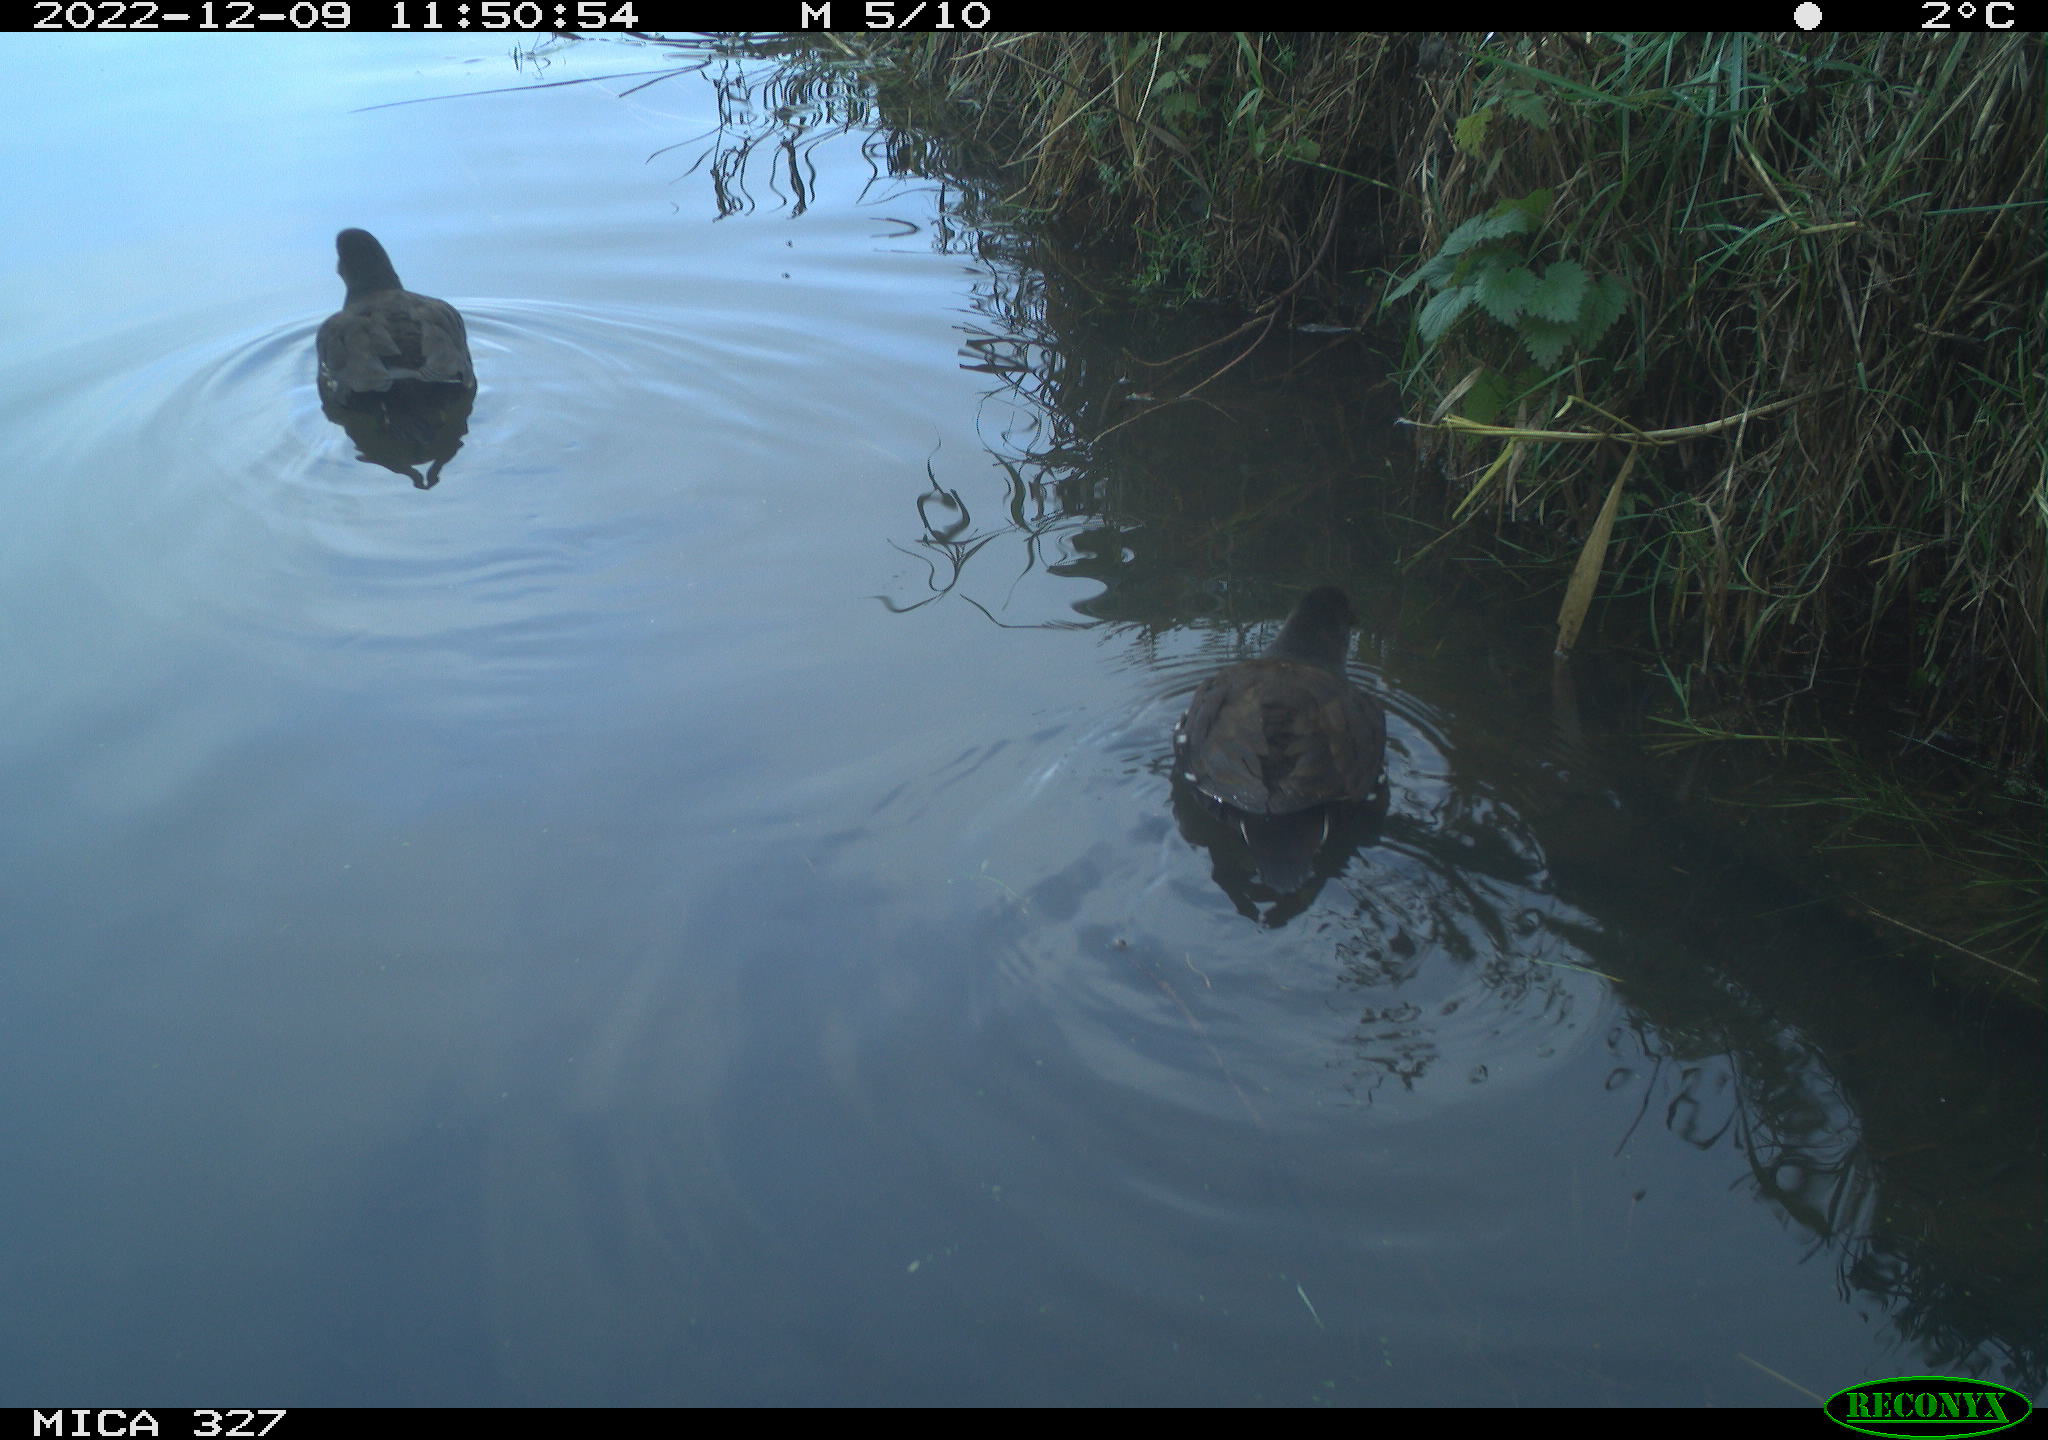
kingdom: Animalia
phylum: Chordata
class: Aves
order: Gruiformes
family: Rallidae
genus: Gallinula
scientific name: Gallinula chloropus
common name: Common moorhen
